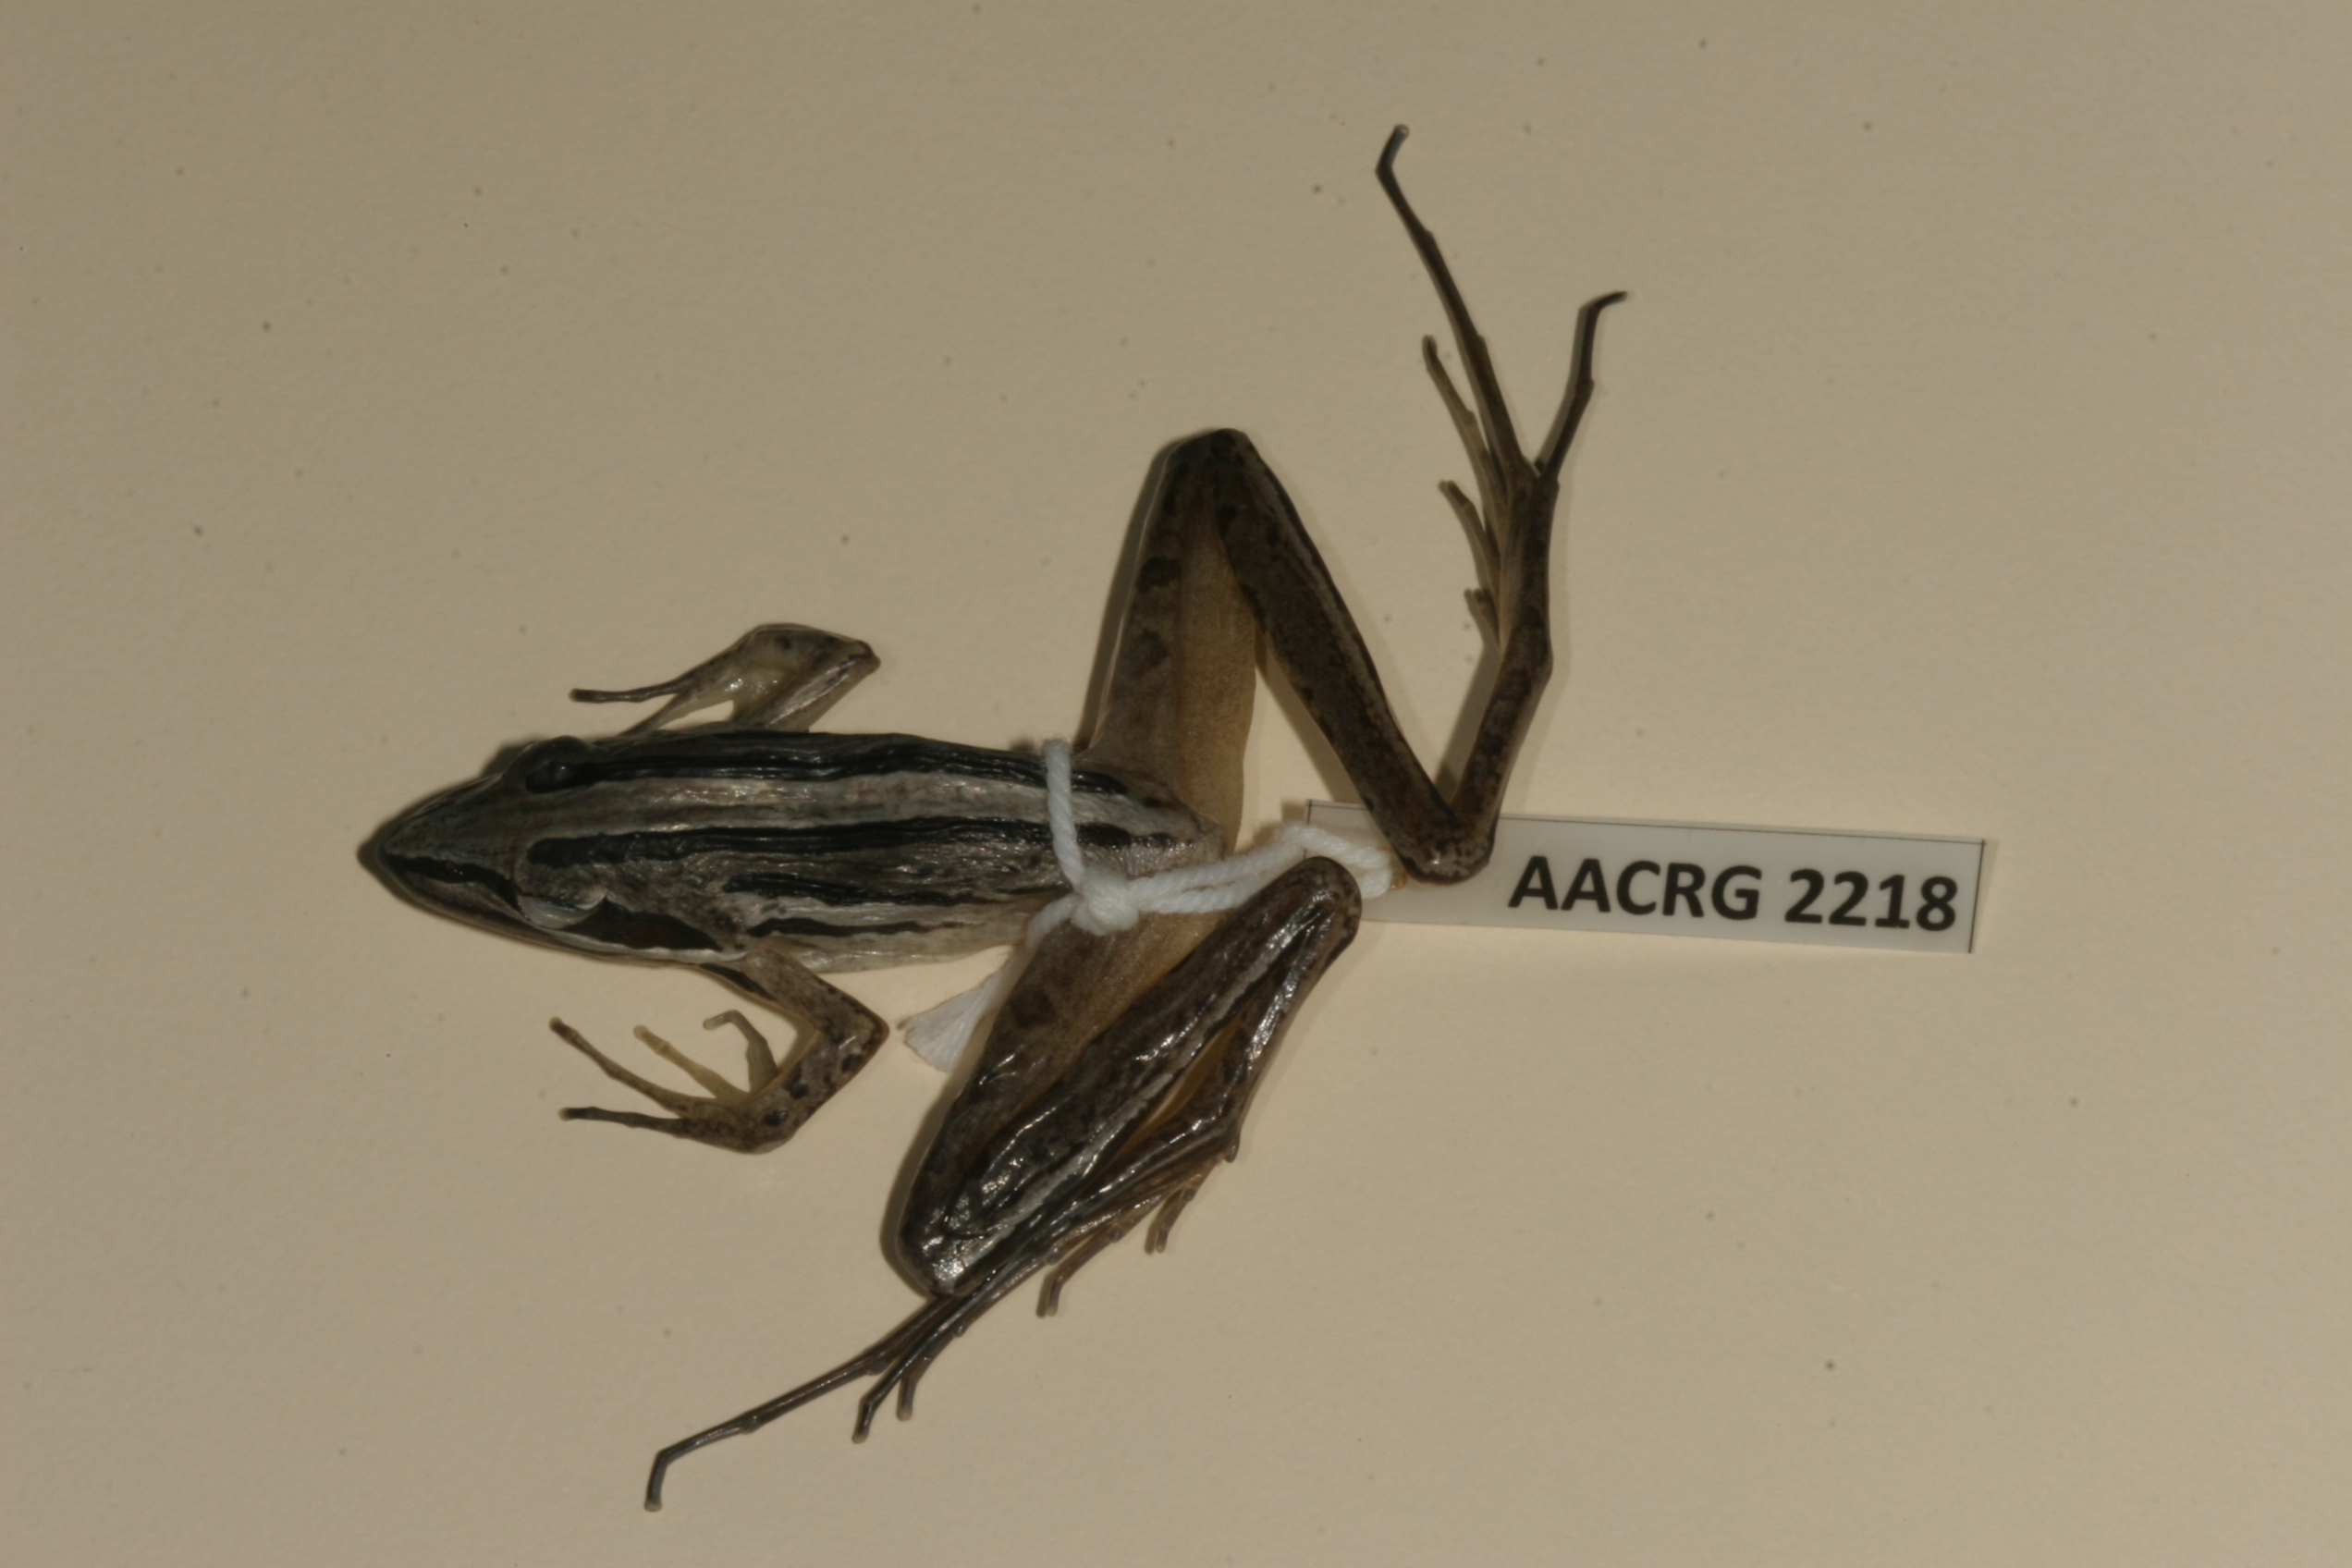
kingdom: Animalia
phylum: Chordata
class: Amphibia
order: Anura
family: Pyxicephalidae
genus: Strongylopus
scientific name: Strongylopus fasciatus
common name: Striped stream frog
